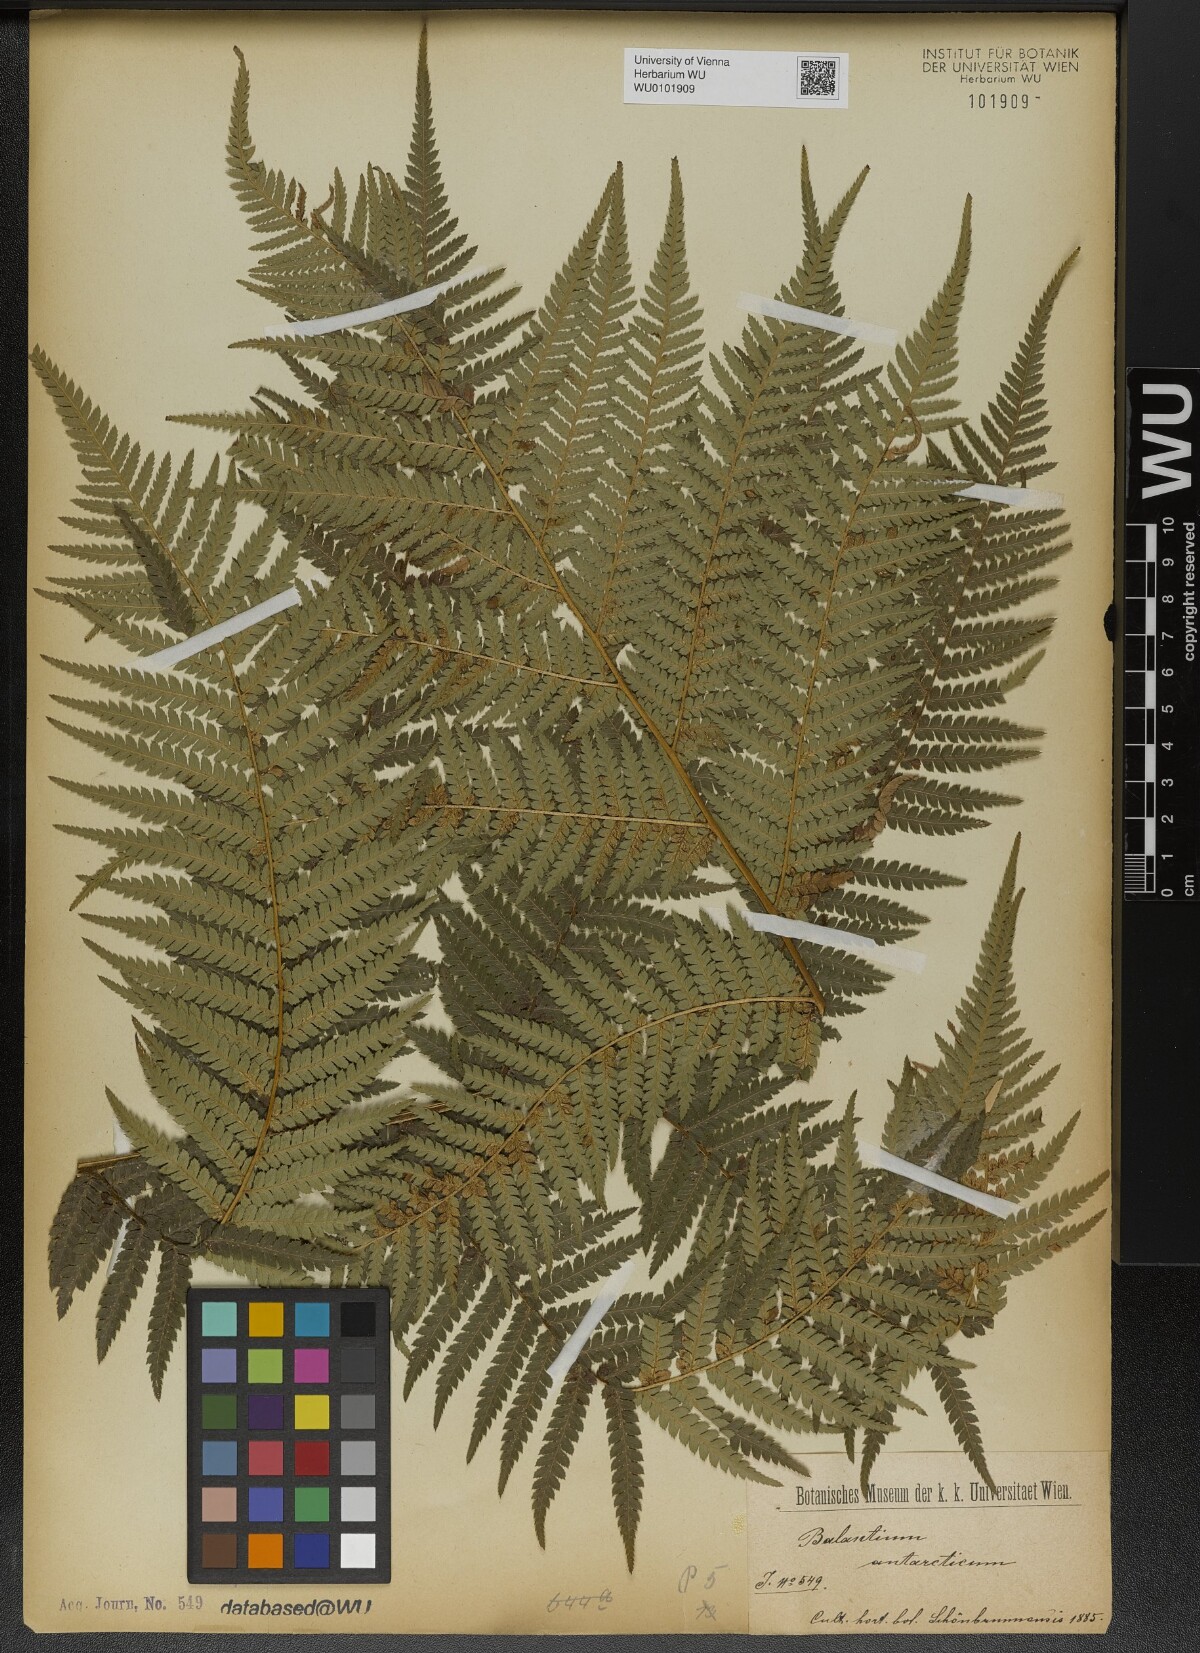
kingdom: Plantae
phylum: Tracheophyta
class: Polypodiopsida
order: Cyatheales
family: Dicksoniaceae
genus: Dicksonia
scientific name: Dicksonia antarctica
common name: Australian treefern
